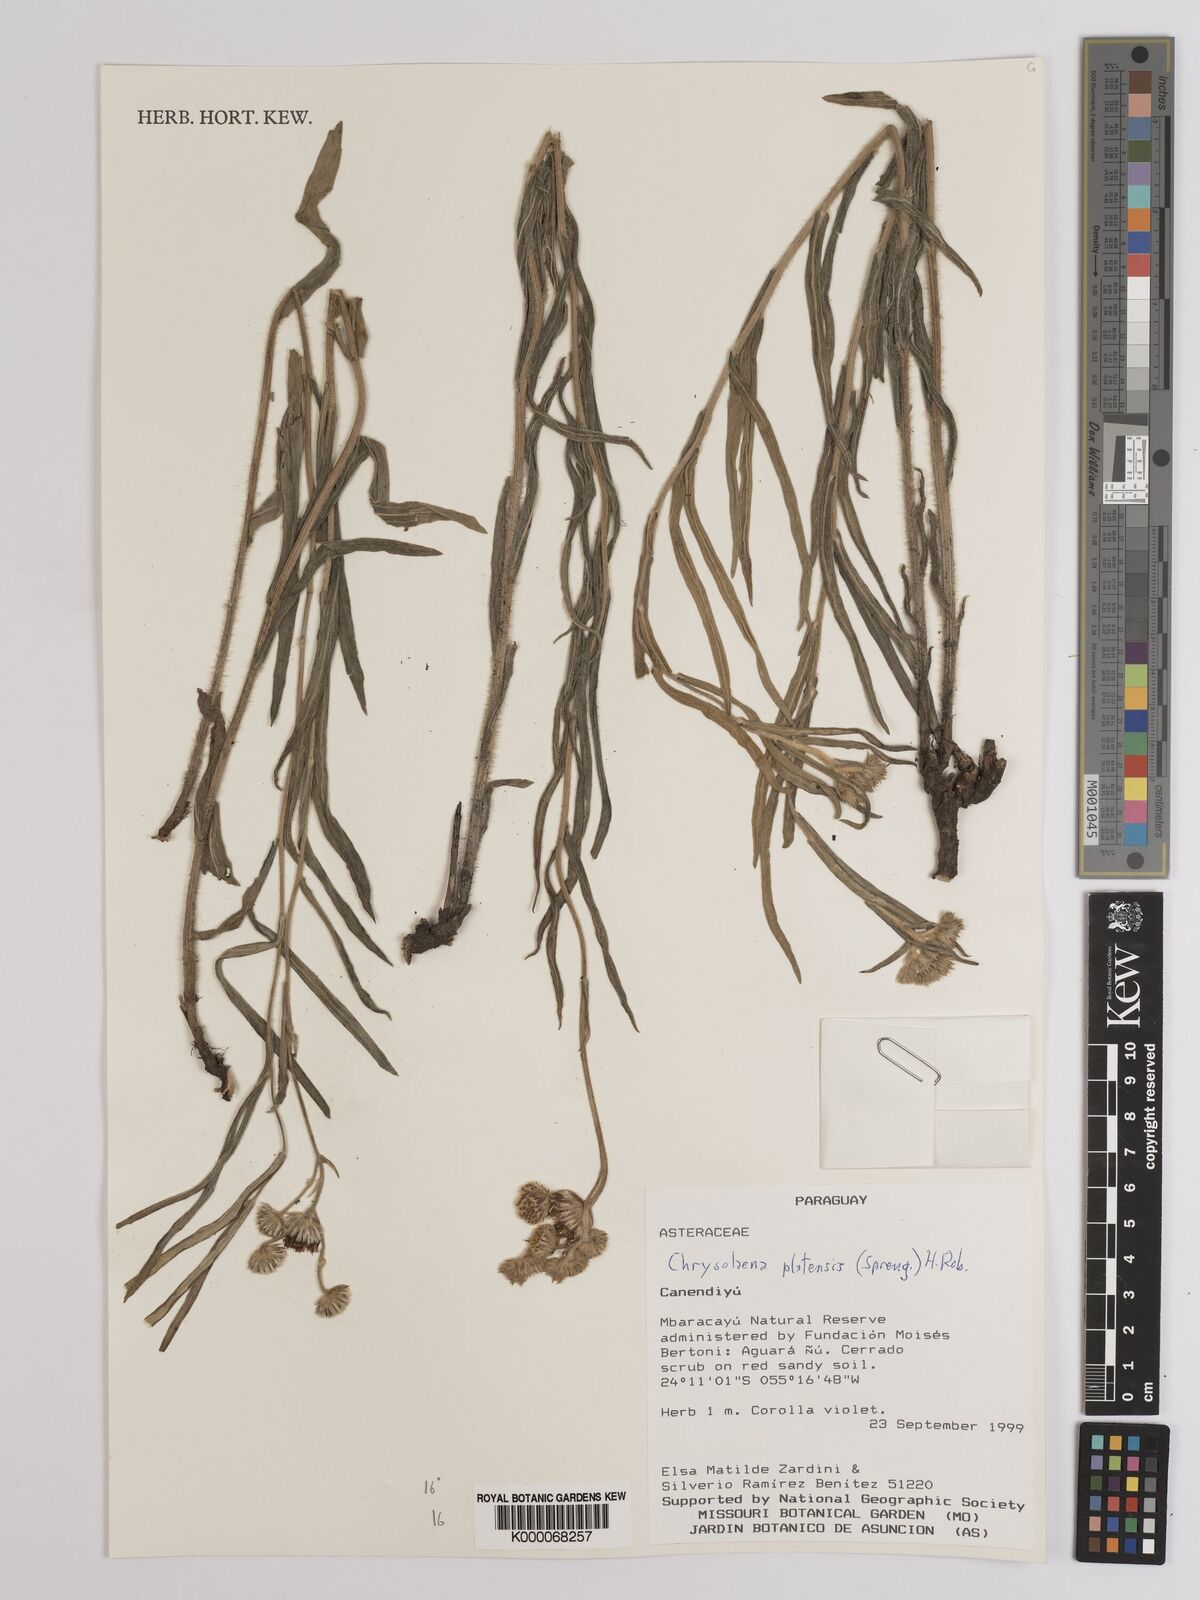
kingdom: Plantae
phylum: Tracheophyta
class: Magnoliopsida
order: Asterales
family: Asteraceae
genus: Chrysolaena
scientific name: Chrysolaena platensis
